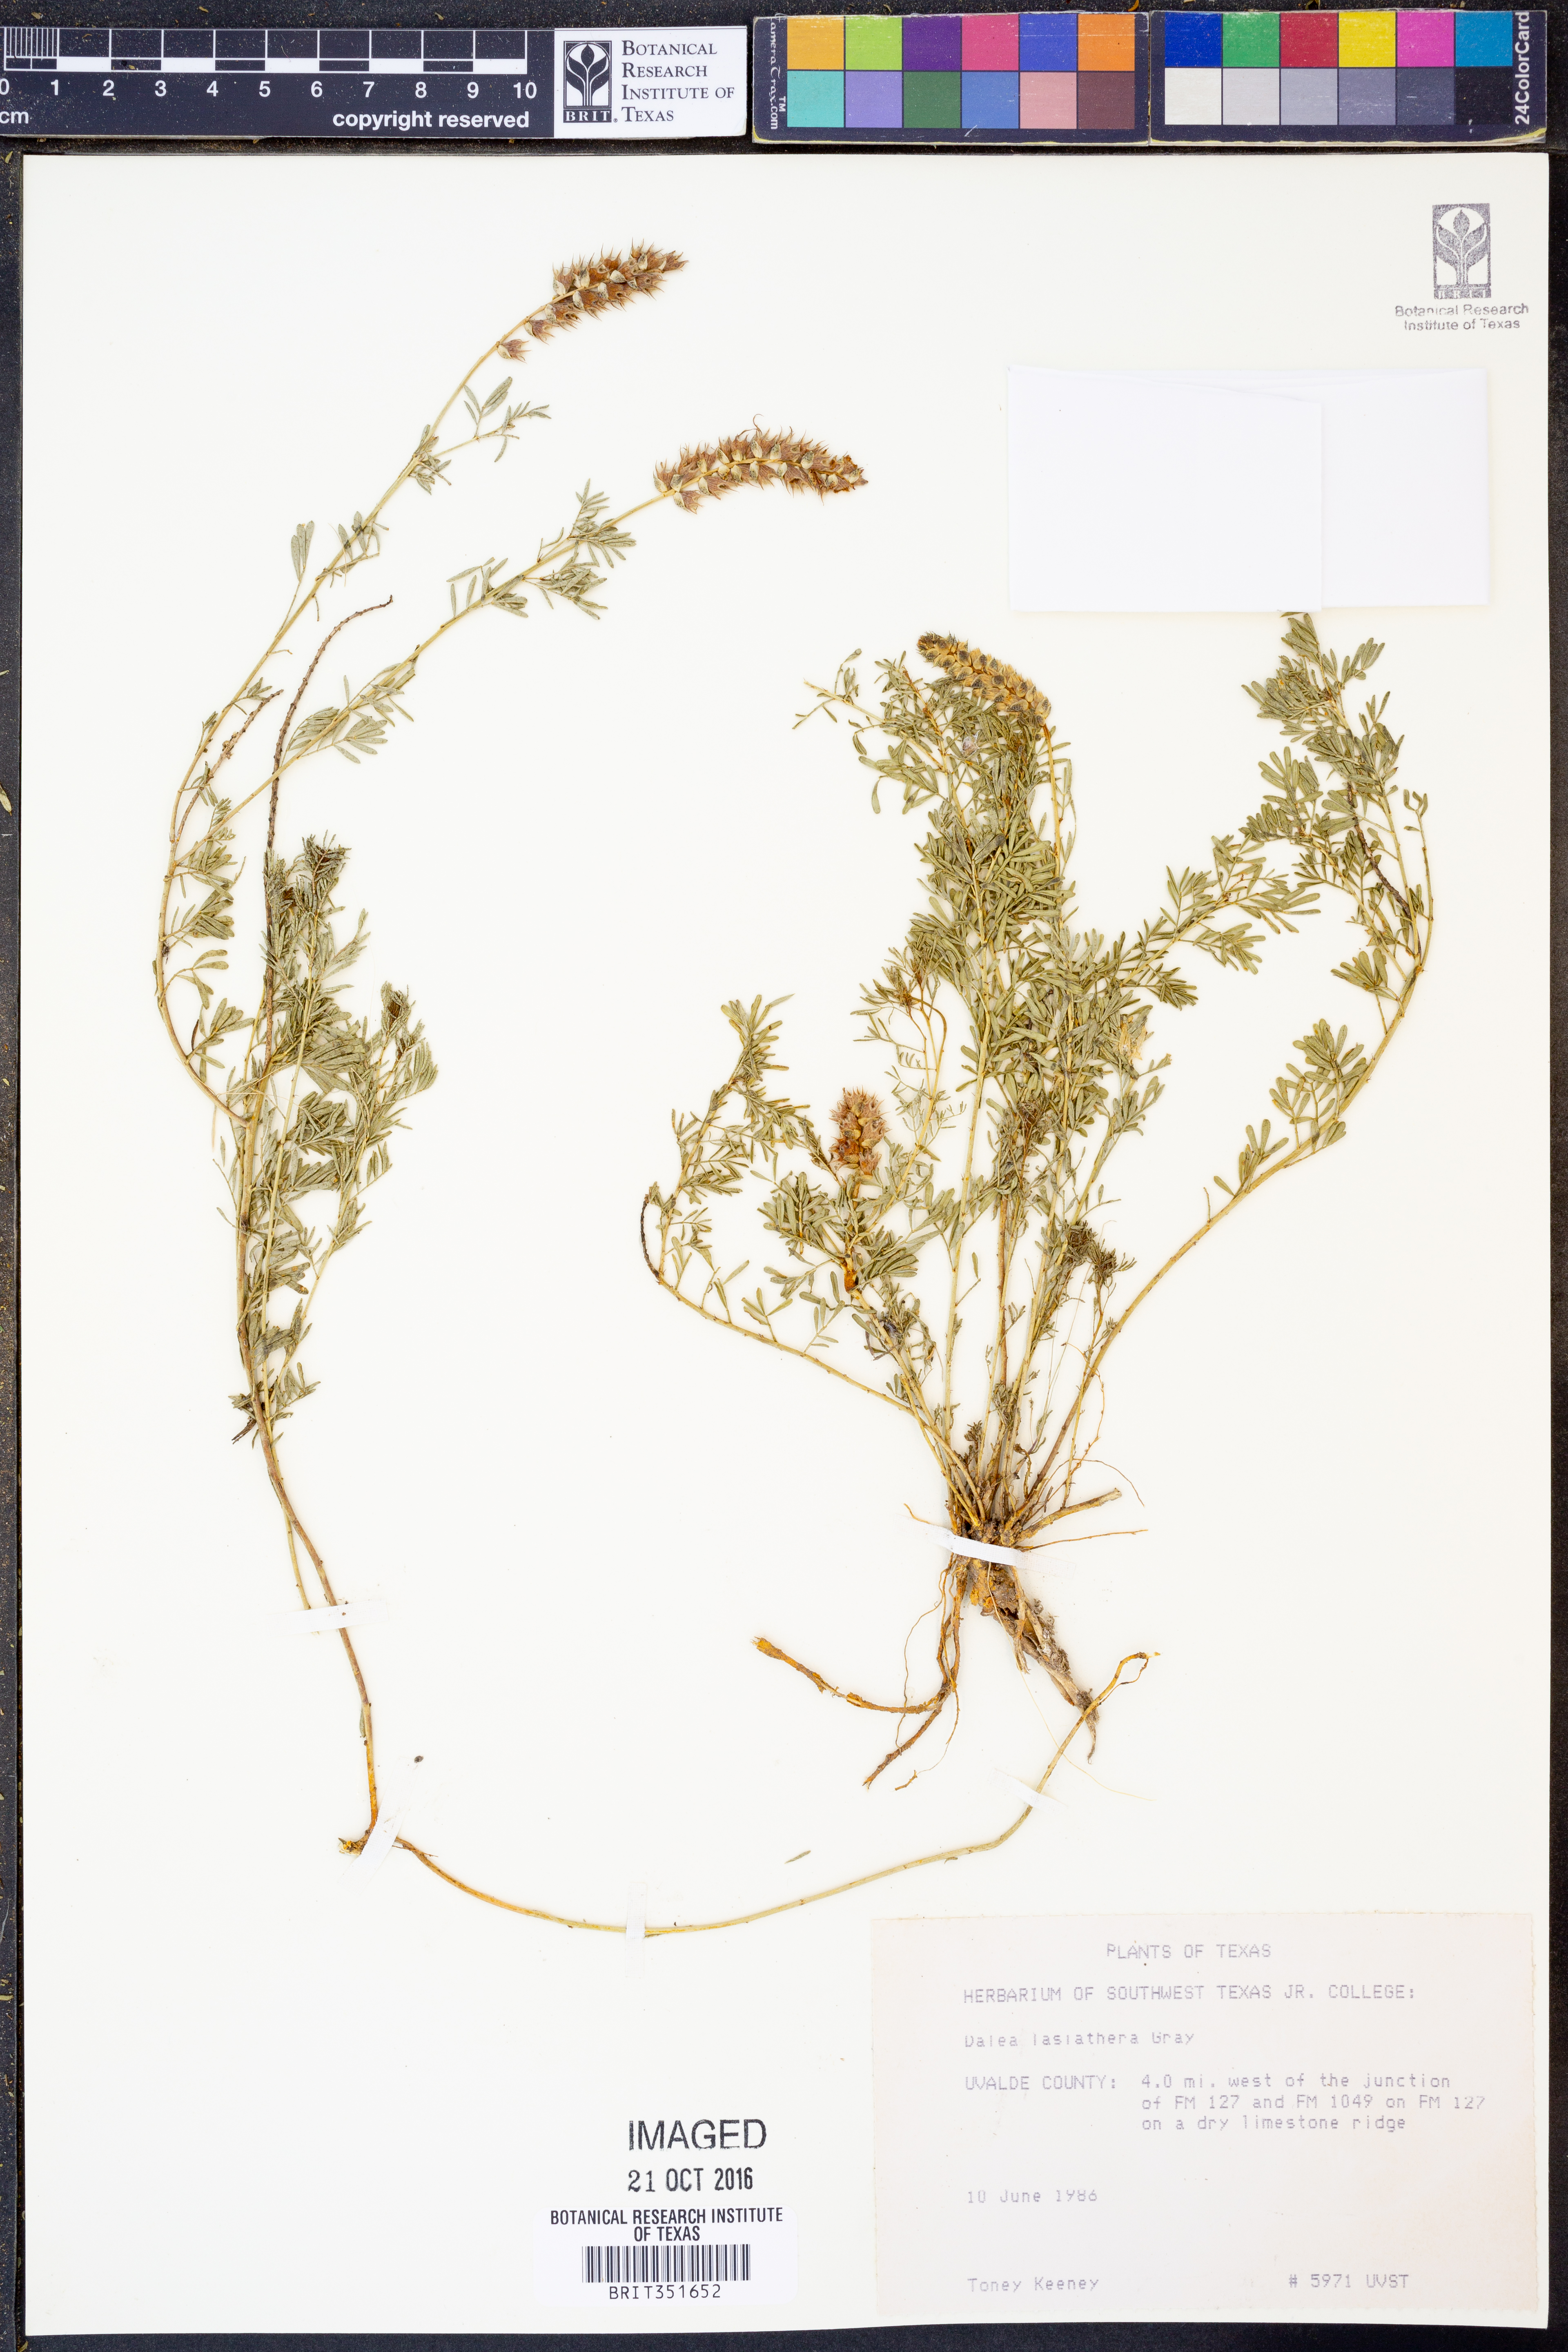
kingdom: Plantae
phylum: Tracheophyta
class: Magnoliopsida
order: Fabales
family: Fabaceae
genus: Dalea
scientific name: Dalea lasiathera
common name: Purple prairie-clover
